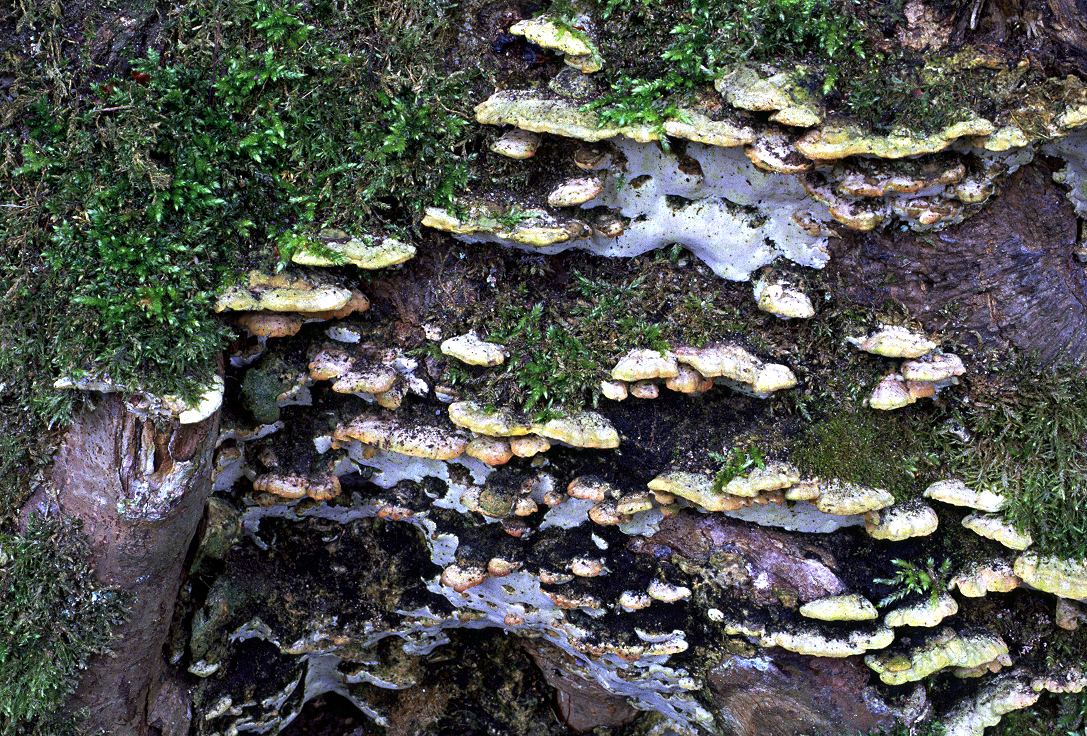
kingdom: Fungi
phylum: Basidiomycota
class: Agaricomycetes
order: Hymenochaetales
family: Oxyporaceae
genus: Oxyporus
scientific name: Oxyporus populinus
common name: sammenvokset trylleporesvamp
